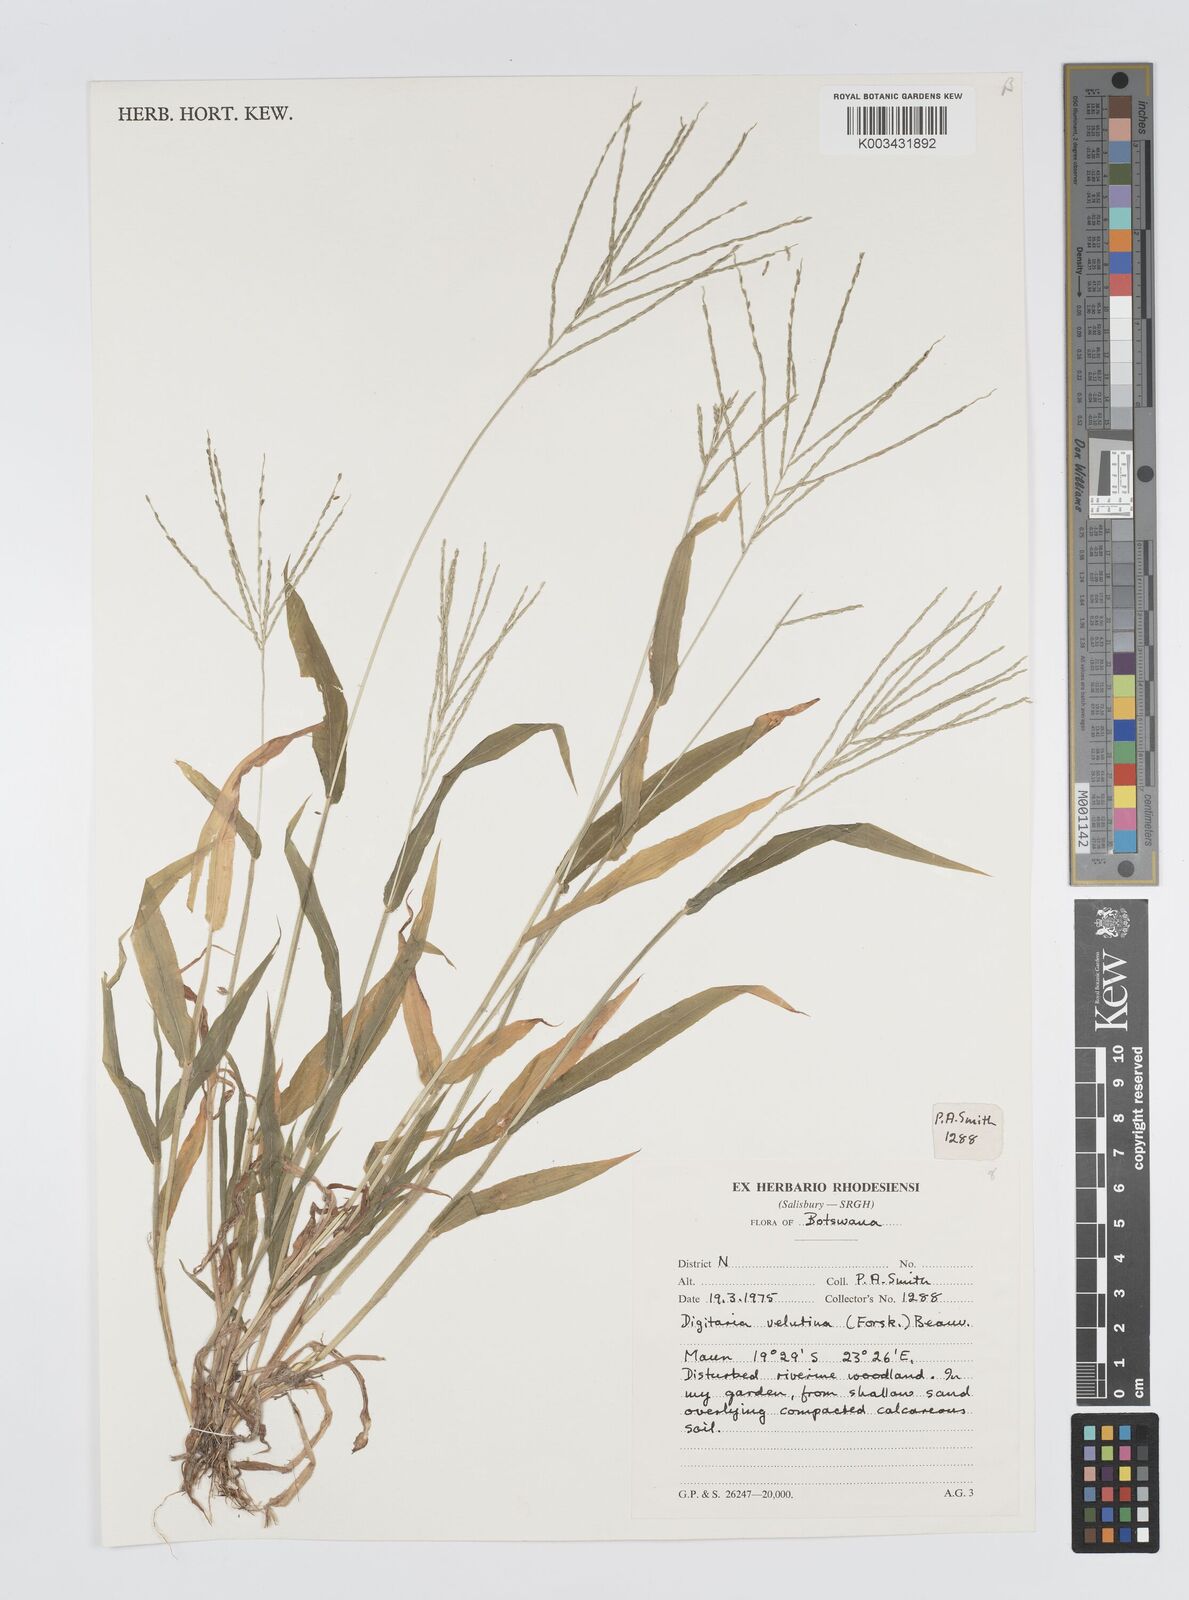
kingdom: Plantae
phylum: Tracheophyta
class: Liliopsida
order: Poales
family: Poaceae
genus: Digitaria
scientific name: Digitaria velutina
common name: Long-plume finger grass
